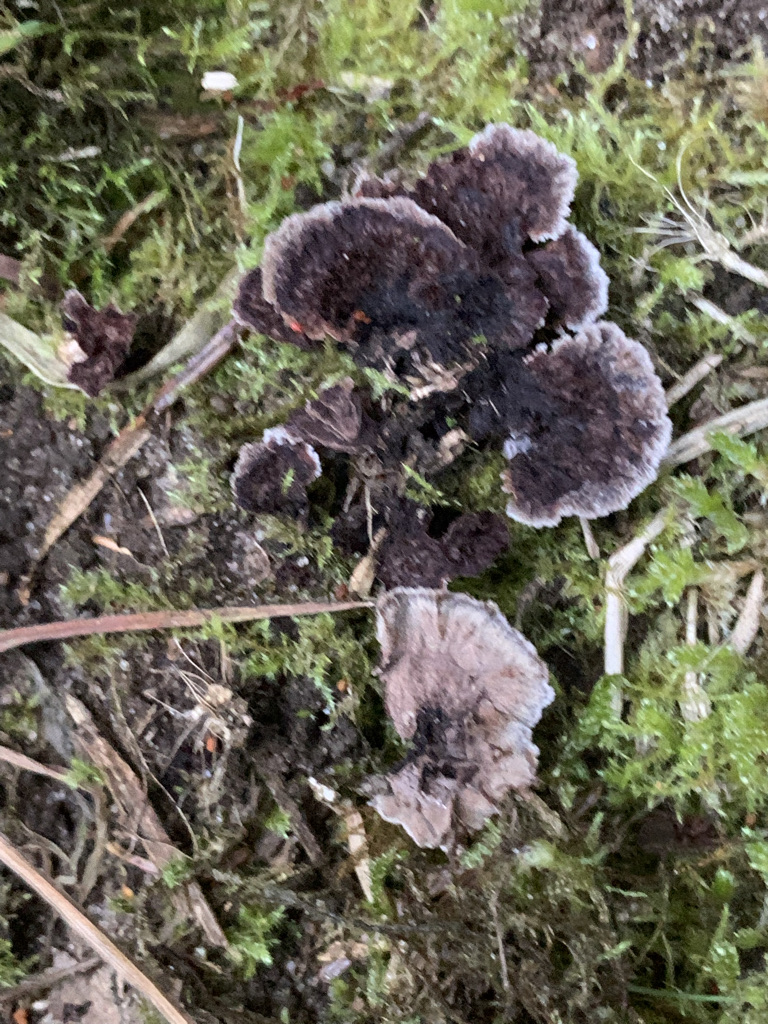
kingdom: Fungi
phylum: Basidiomycota
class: Agaricomycetes
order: Thelephorales
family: Thelephoraceae
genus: Thelephora
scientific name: Thelephora terrestris
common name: fliget frynsesvamp
